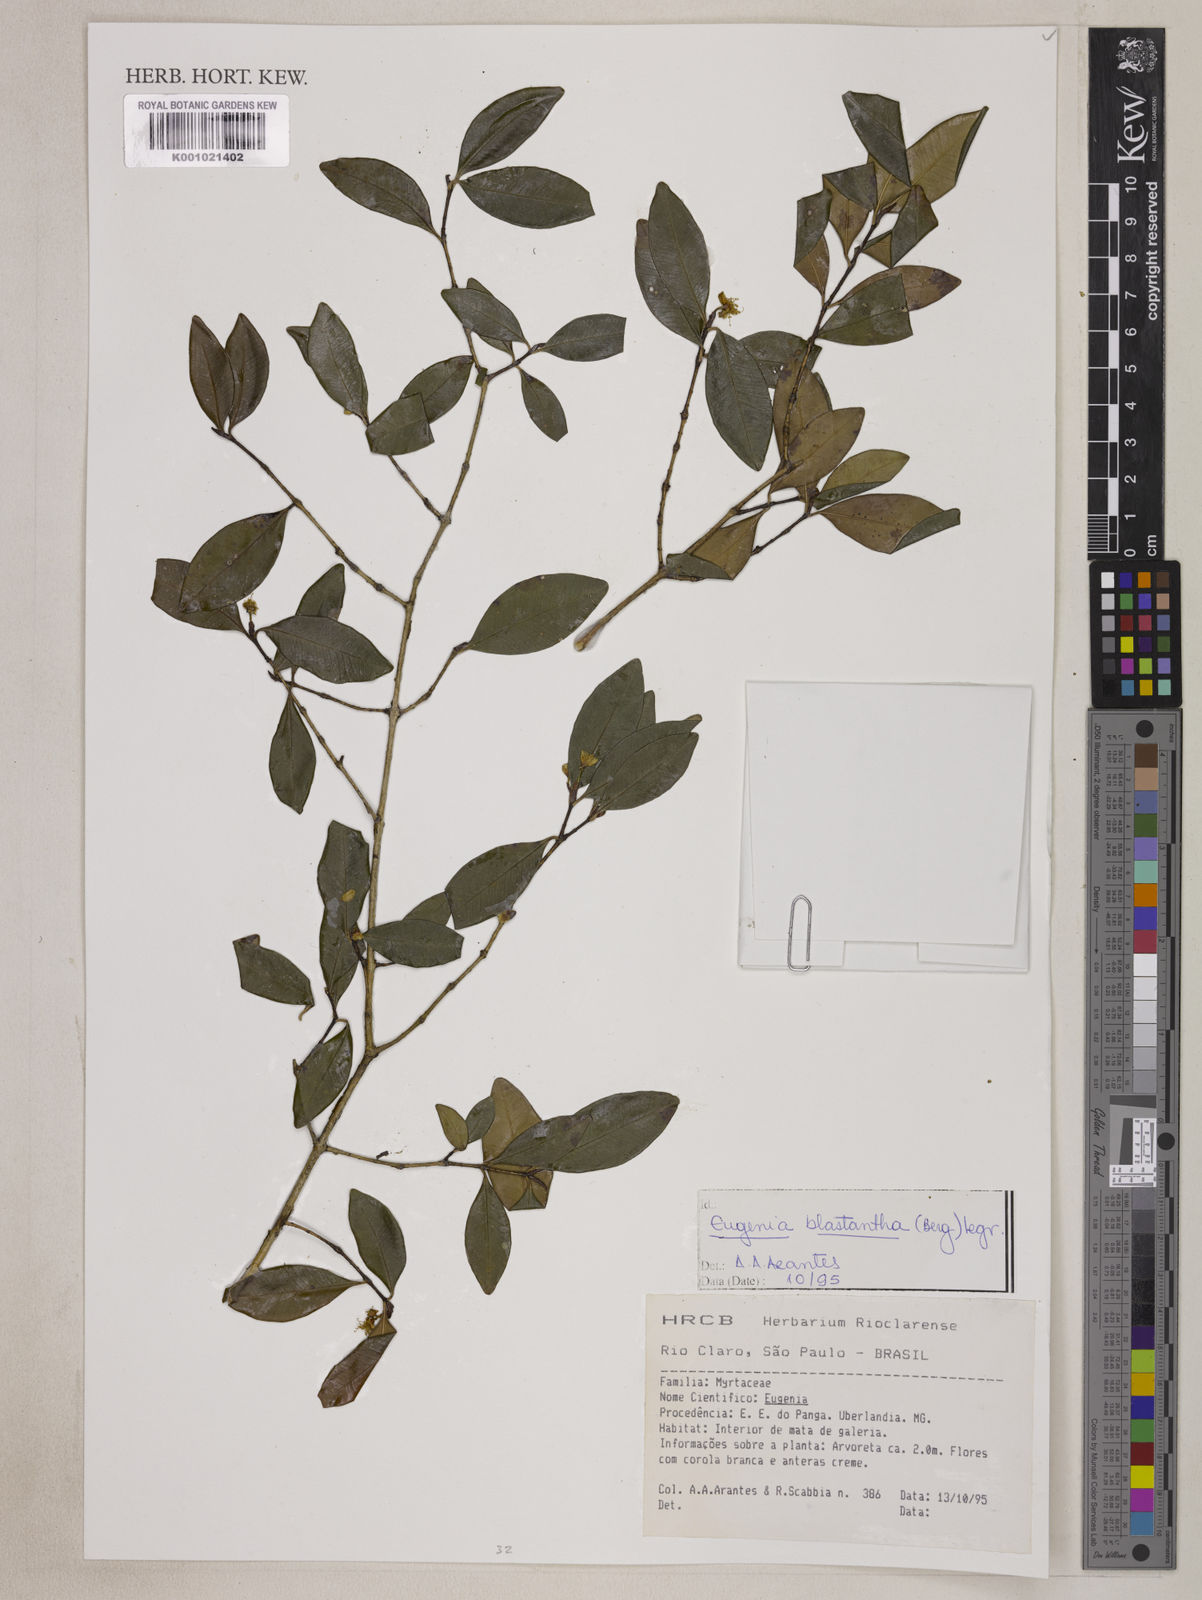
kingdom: Plantae
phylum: Tracheophyta
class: Magnoliopsida
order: Myrtales
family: Myrtaceae
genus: Eugenia
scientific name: Eugenia blastantha
